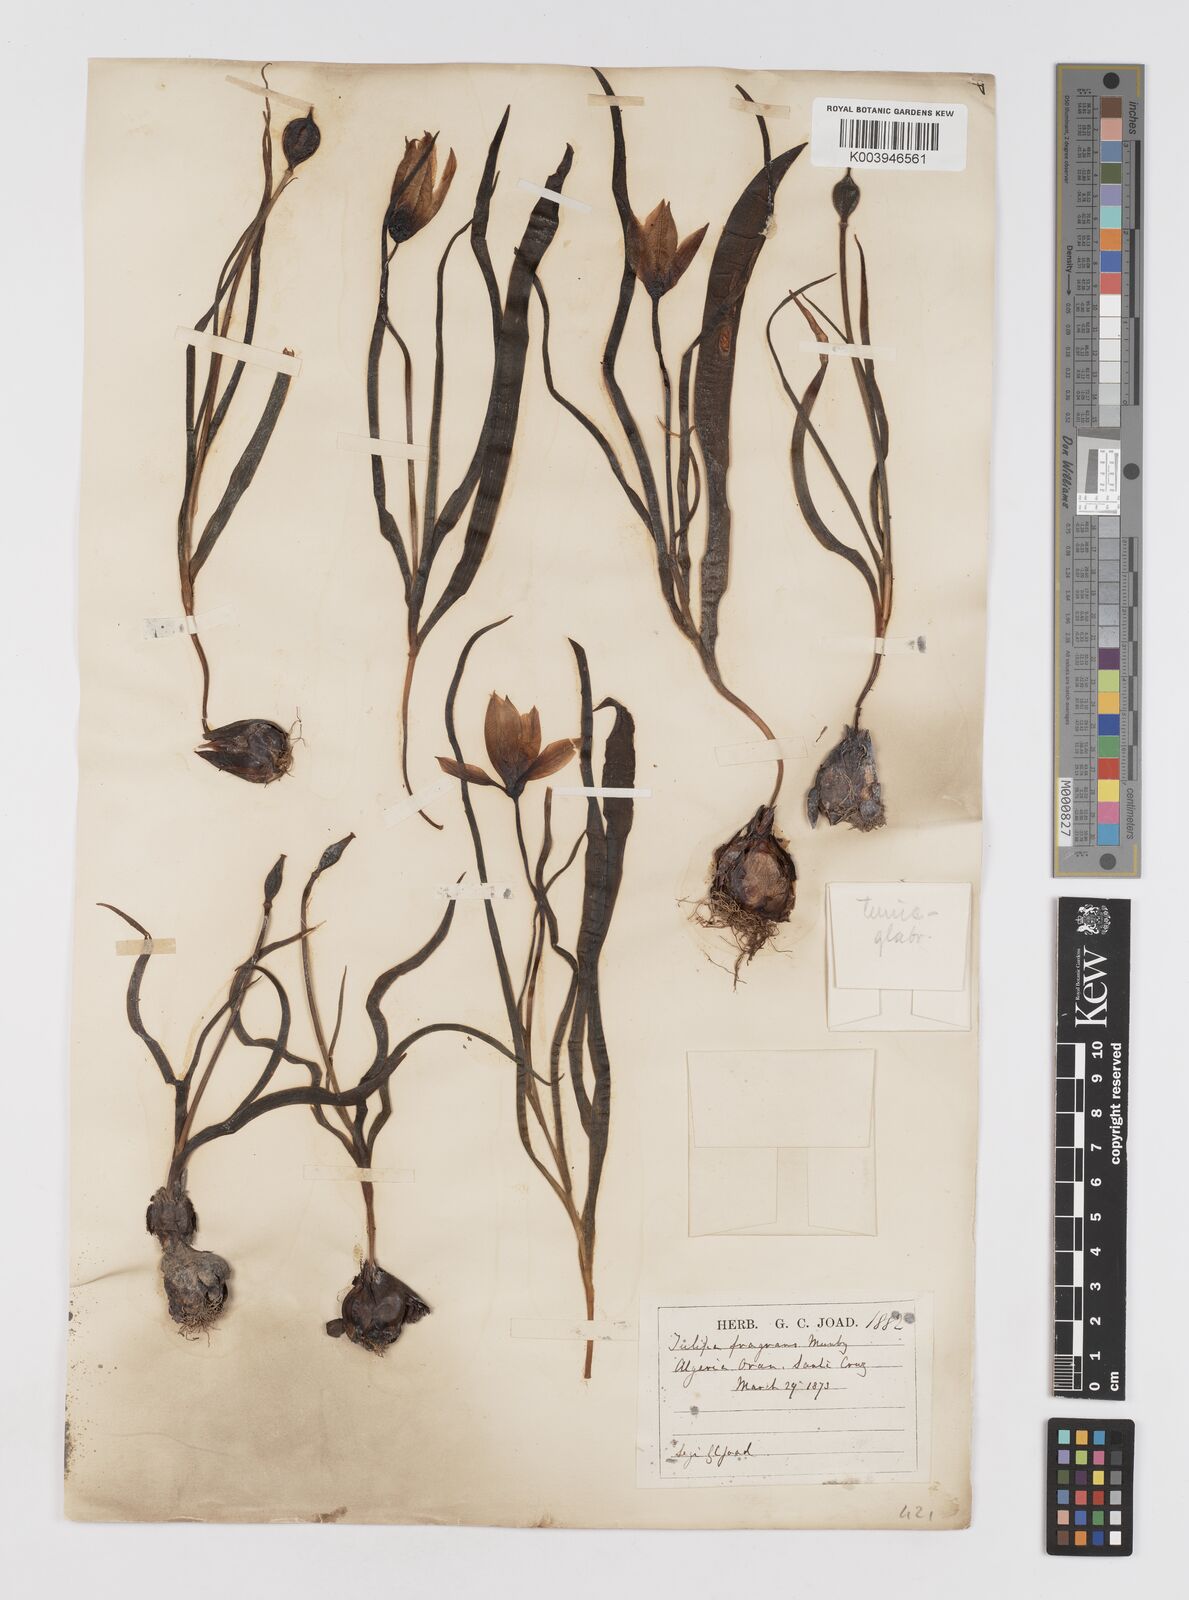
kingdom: Plantae
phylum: Tracheophyta
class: Liliopsida
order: Liliales
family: Liliaceae
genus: Tulipa
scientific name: Tulipa sylvestris
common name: Wild tulip
